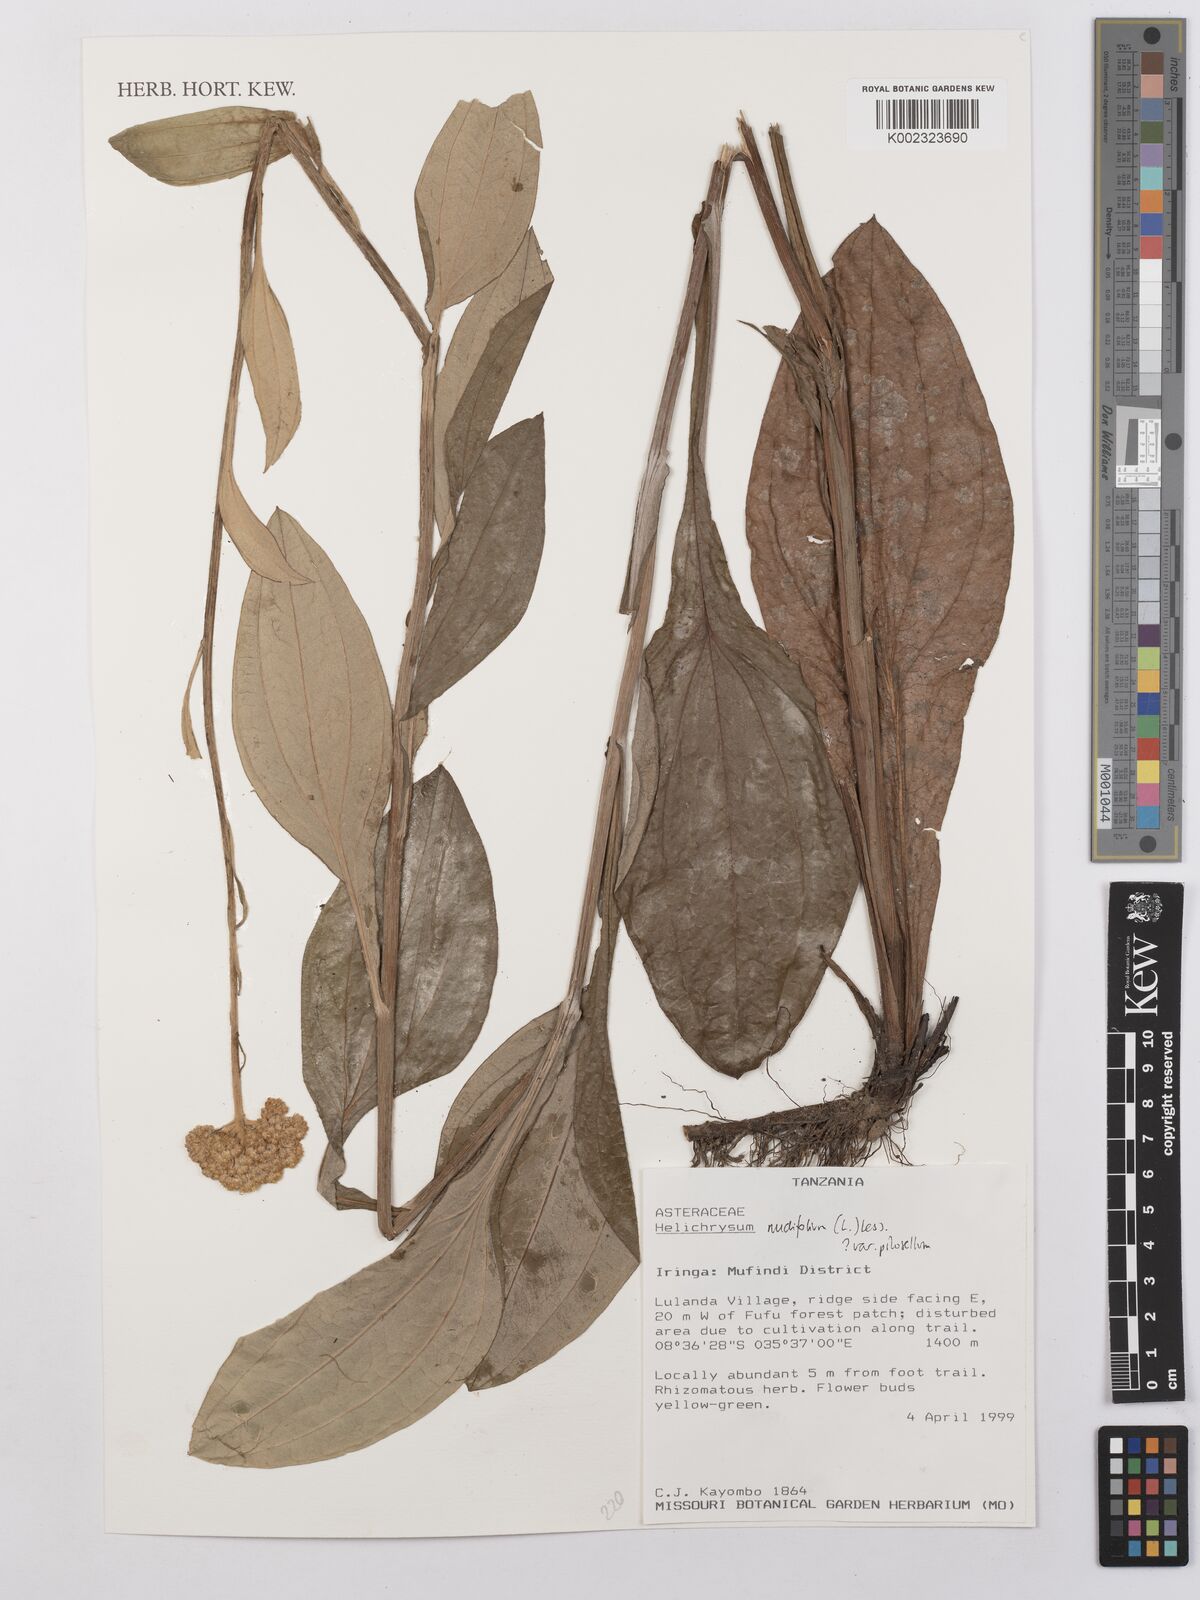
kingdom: Plantae
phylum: Tracheophyta
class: Magnoliopsida
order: Asterales
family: Asteraceae
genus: Helichrysum
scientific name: Helichrysum nudifolium
